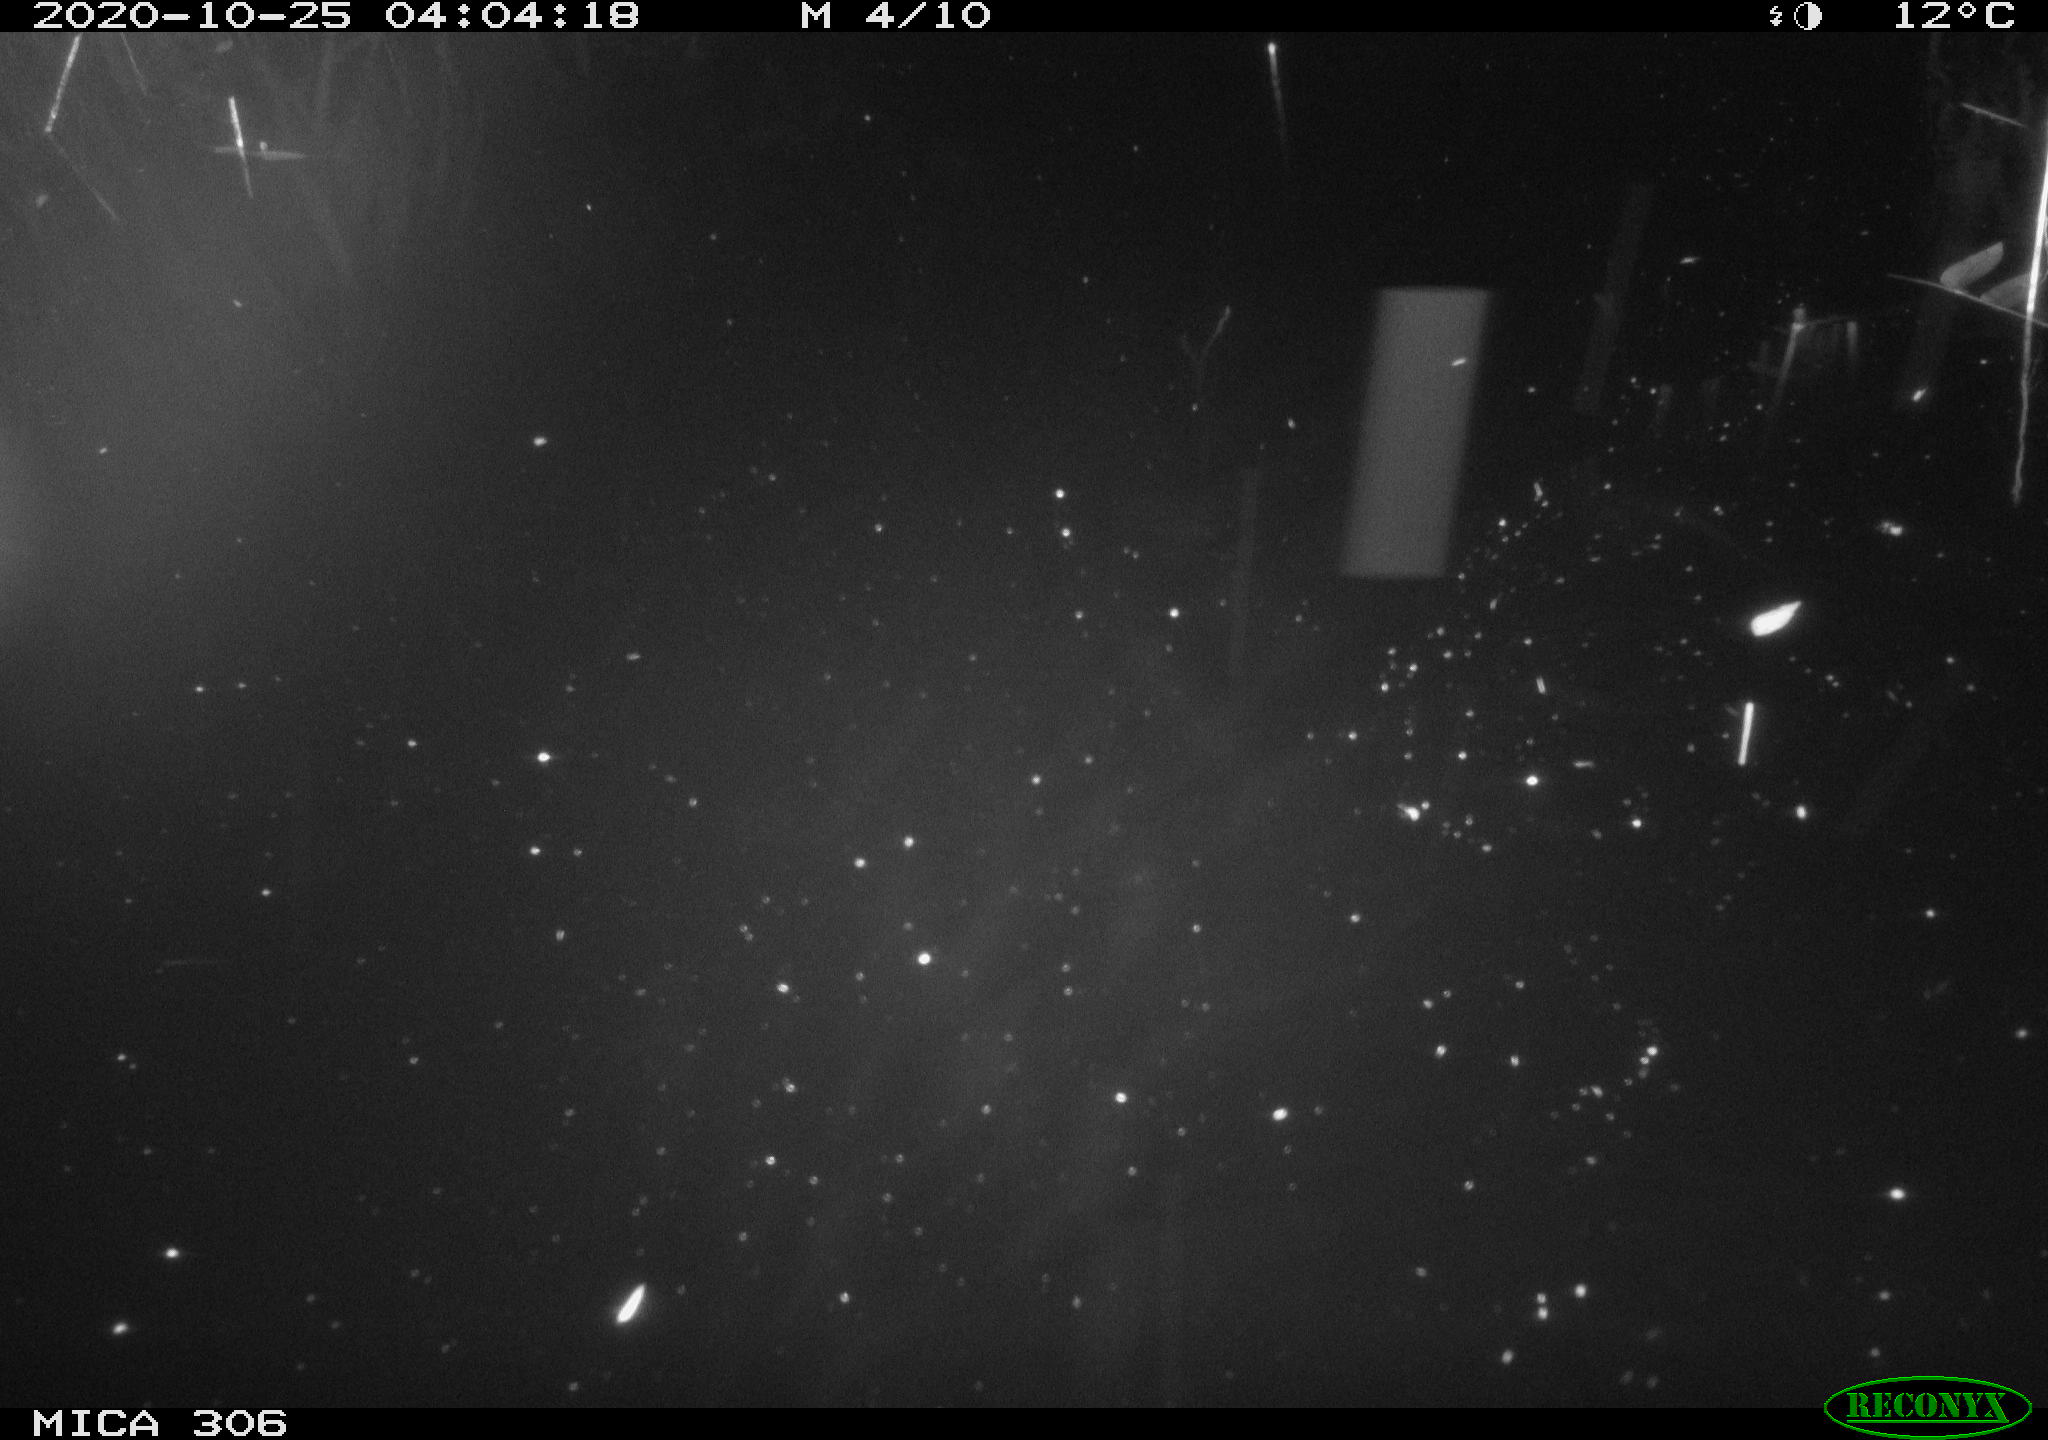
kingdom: Animalia
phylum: Chordata
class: Mammalia
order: Rodentia
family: Cricetidae
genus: Ondatra
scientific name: Ondatra zibethicus
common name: Muskrat
